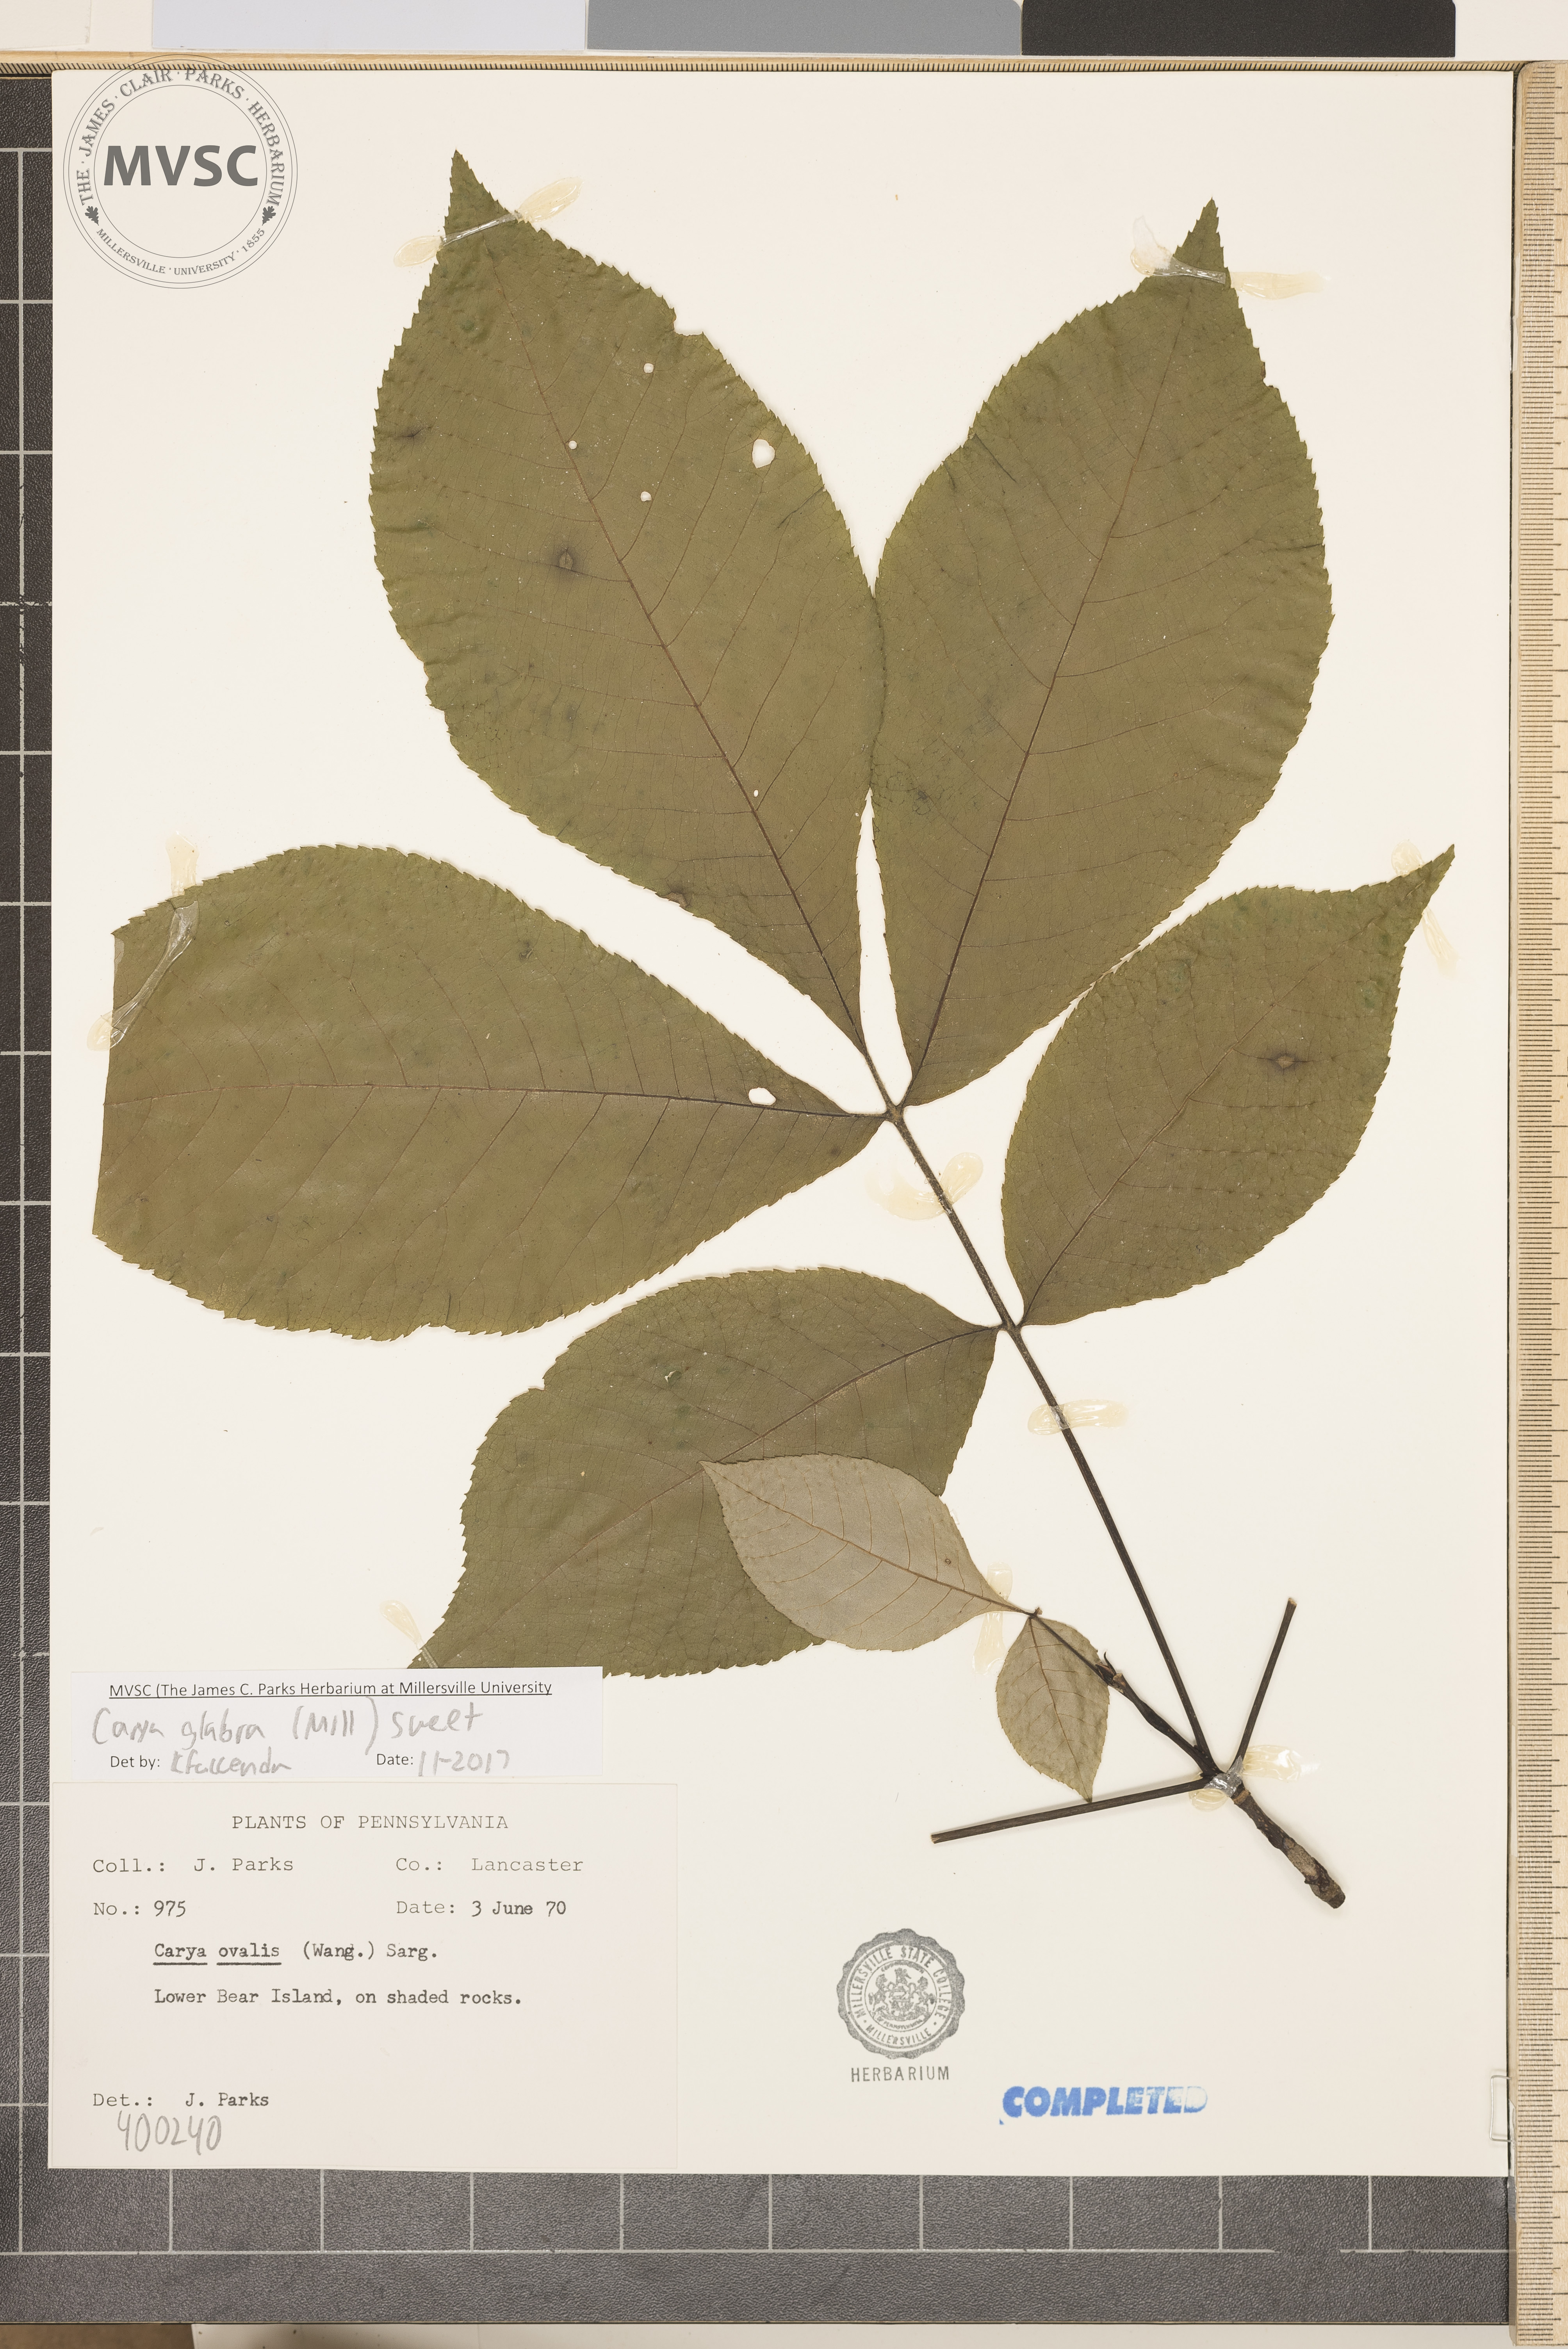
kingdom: Plantae
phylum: Tracheophyta
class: Magnoliopsida
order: Fagales
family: Juglandaceae
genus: Carya
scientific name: Carya glabra
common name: red hickory
